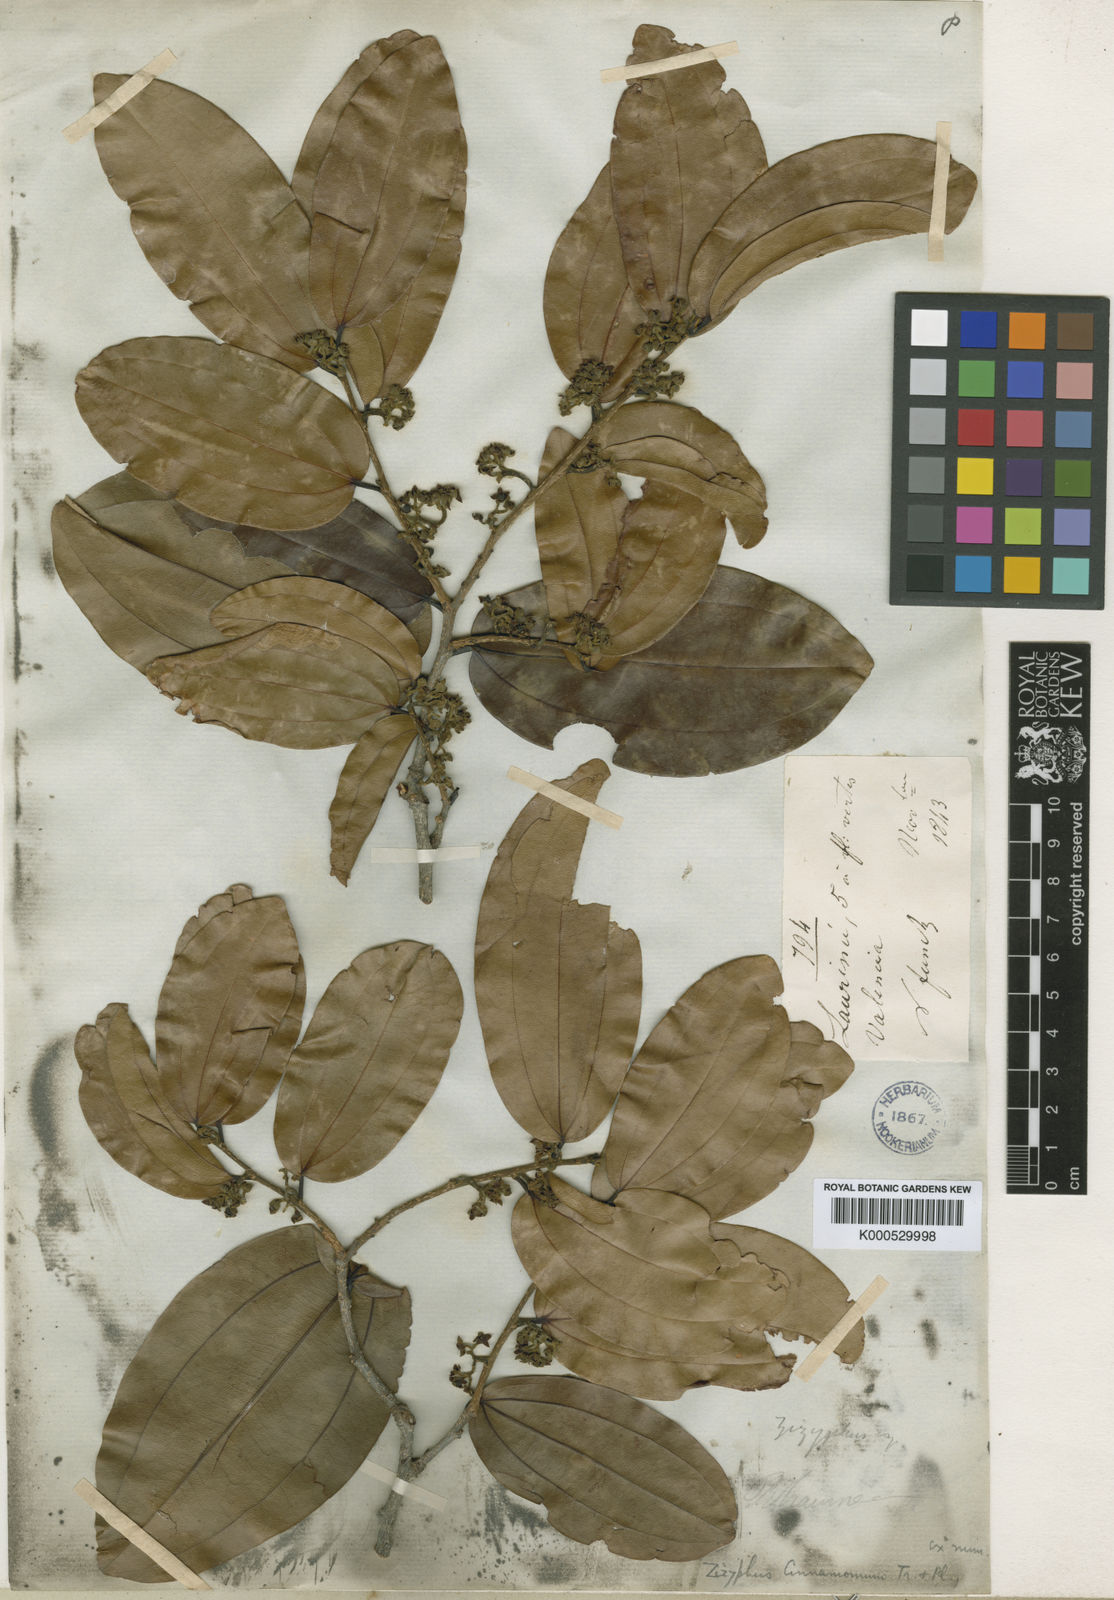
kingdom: Plantae
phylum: Tracheophyta
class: Magnoliopsida
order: Rosales
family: Rhamnaceae
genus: Sarcomphalus
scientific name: Sarcomphalus cinnamomum
